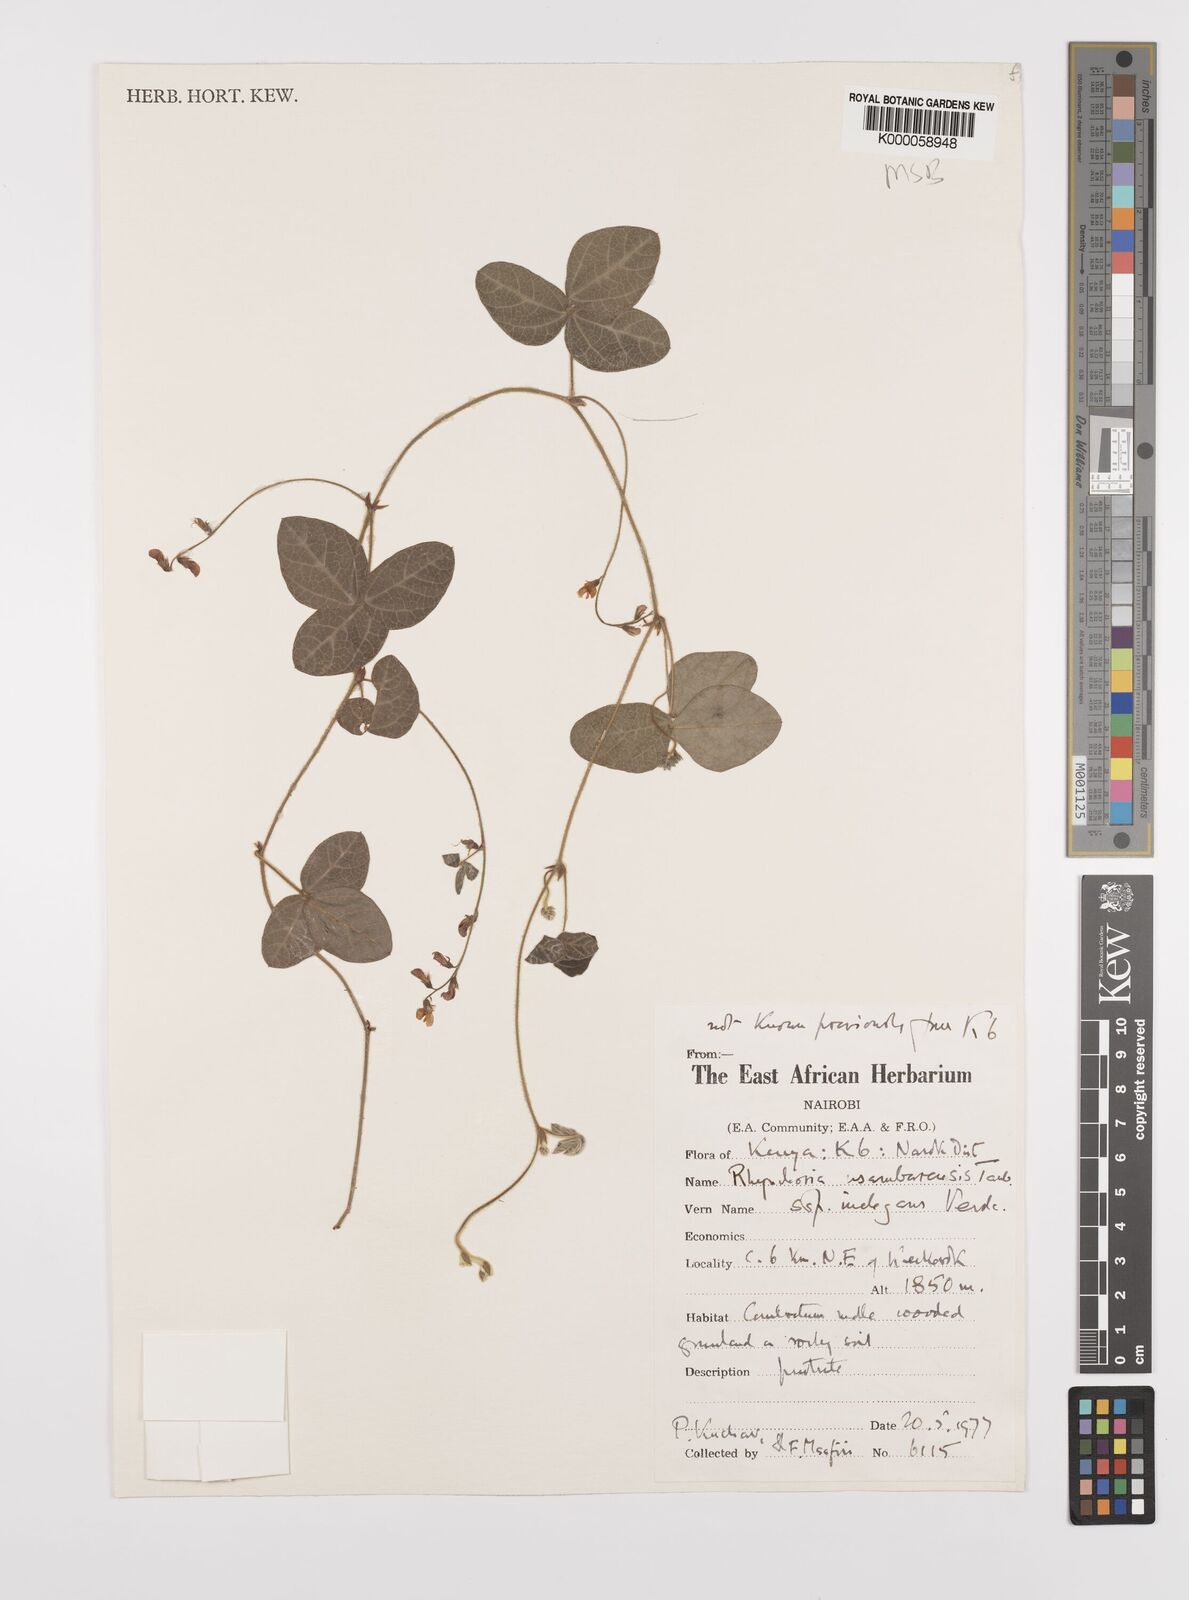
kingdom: Plantae
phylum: Tracheophyta
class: Magnoliopsida
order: Fabales
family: Fabaceae
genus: Rhynchosia
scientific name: Rhynchosia usambarensis
